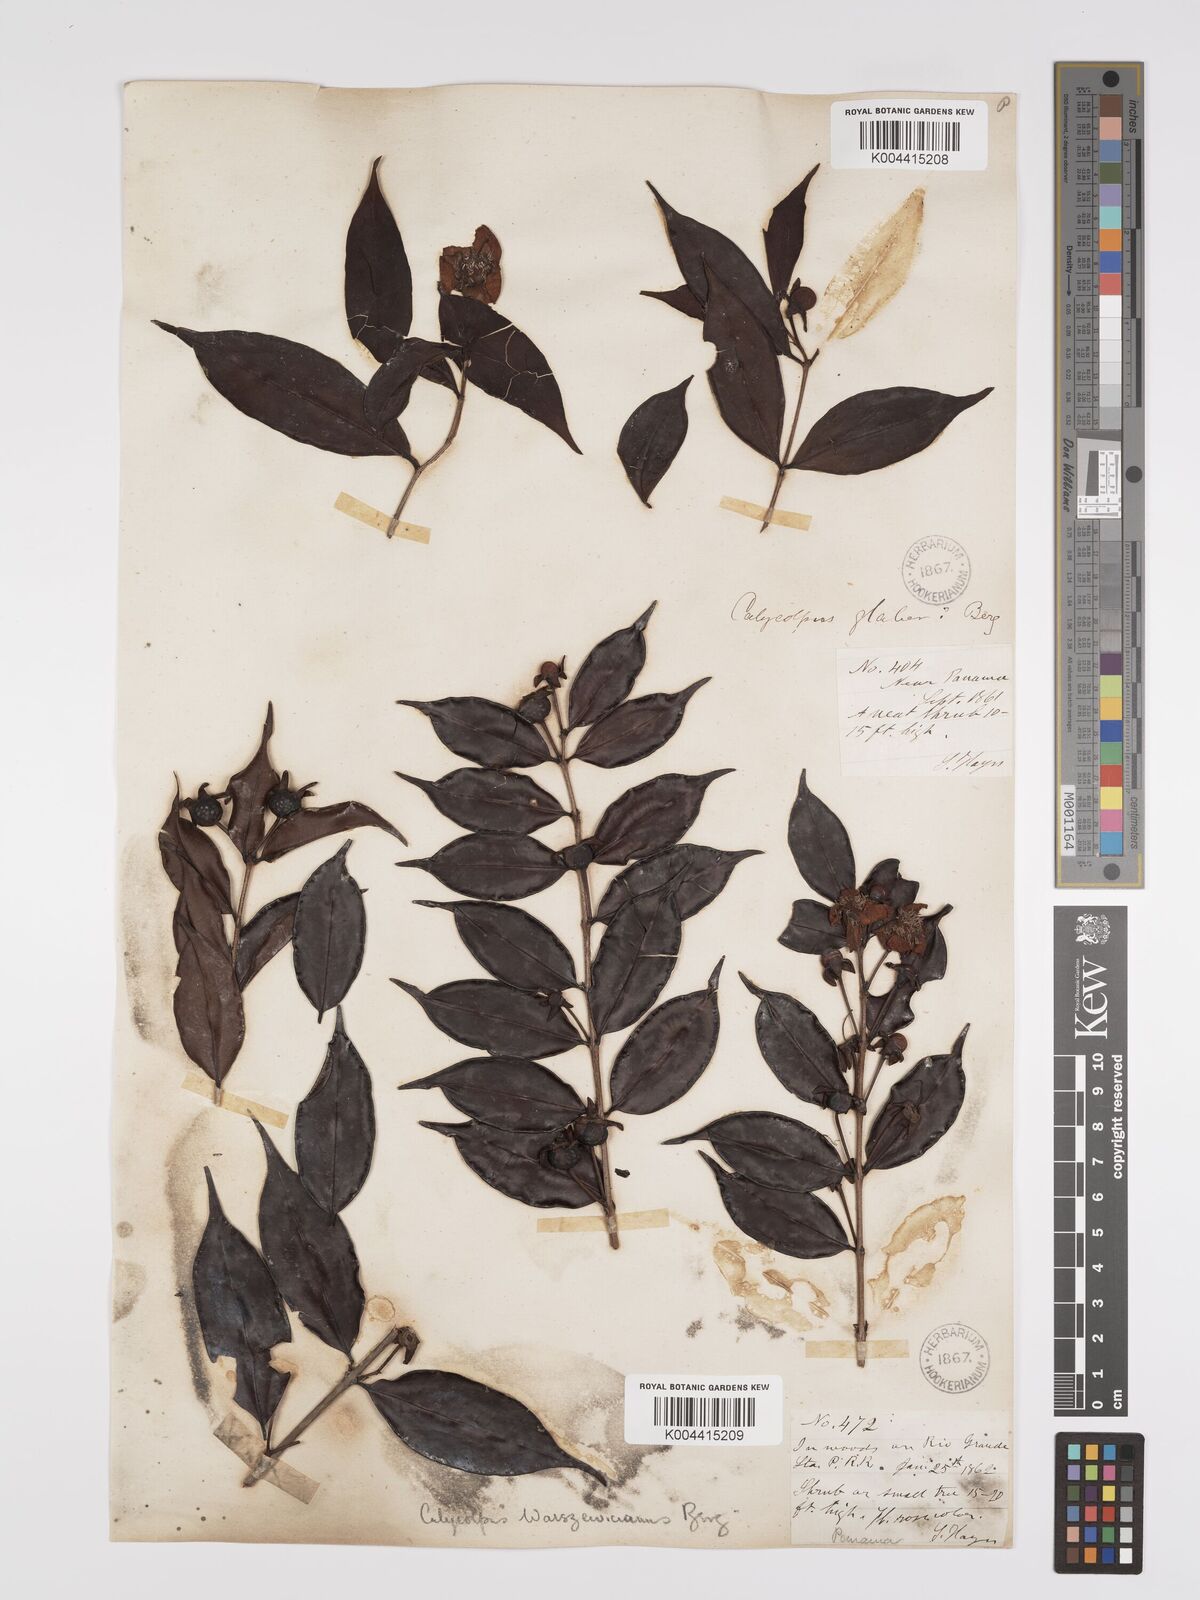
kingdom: Plantae
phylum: Tracheophyta
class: Magnoliopsida
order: Myrtales
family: Myrtaceae
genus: Calycolpus
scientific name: Calycolpus warszewiczianus
